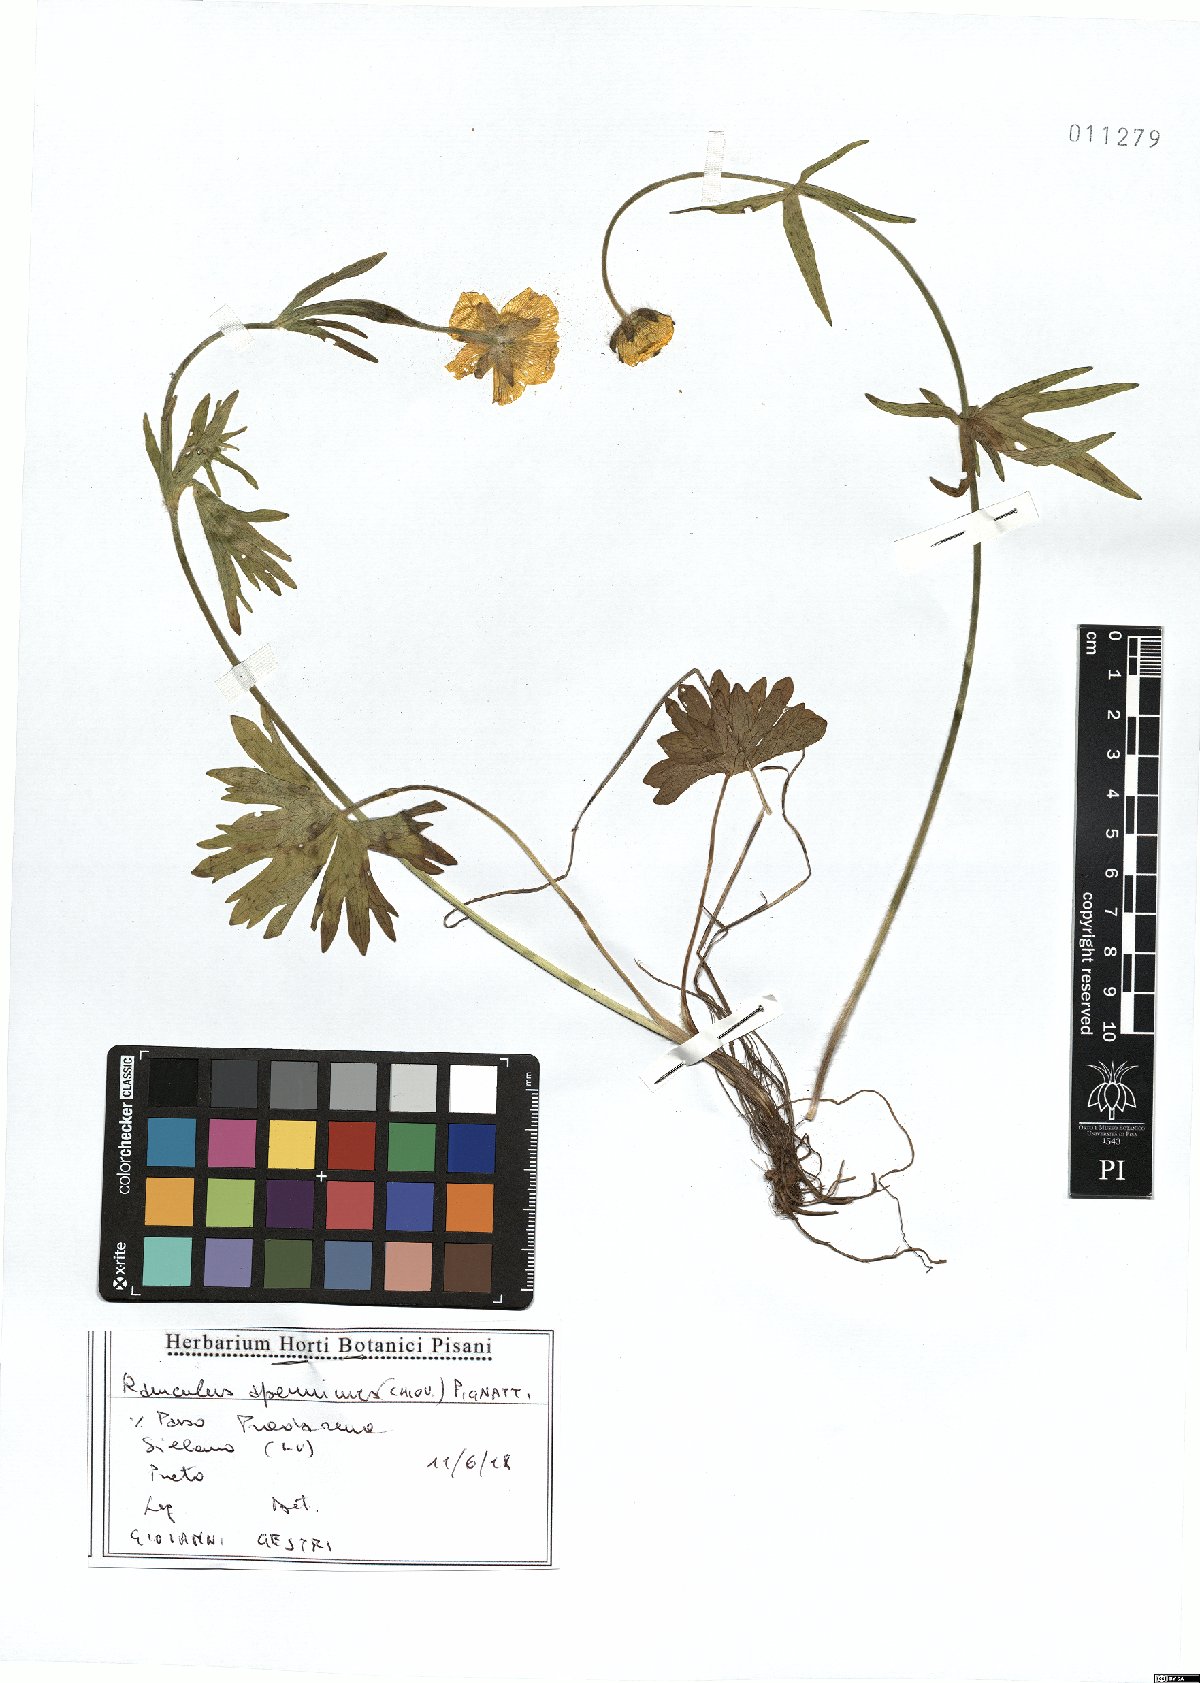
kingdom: Plantae
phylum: Tracheophyta
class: Magnoliopsida
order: Ranunculales
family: Ranunculaceae
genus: Ranunculus
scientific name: Ranunculus apenninus
